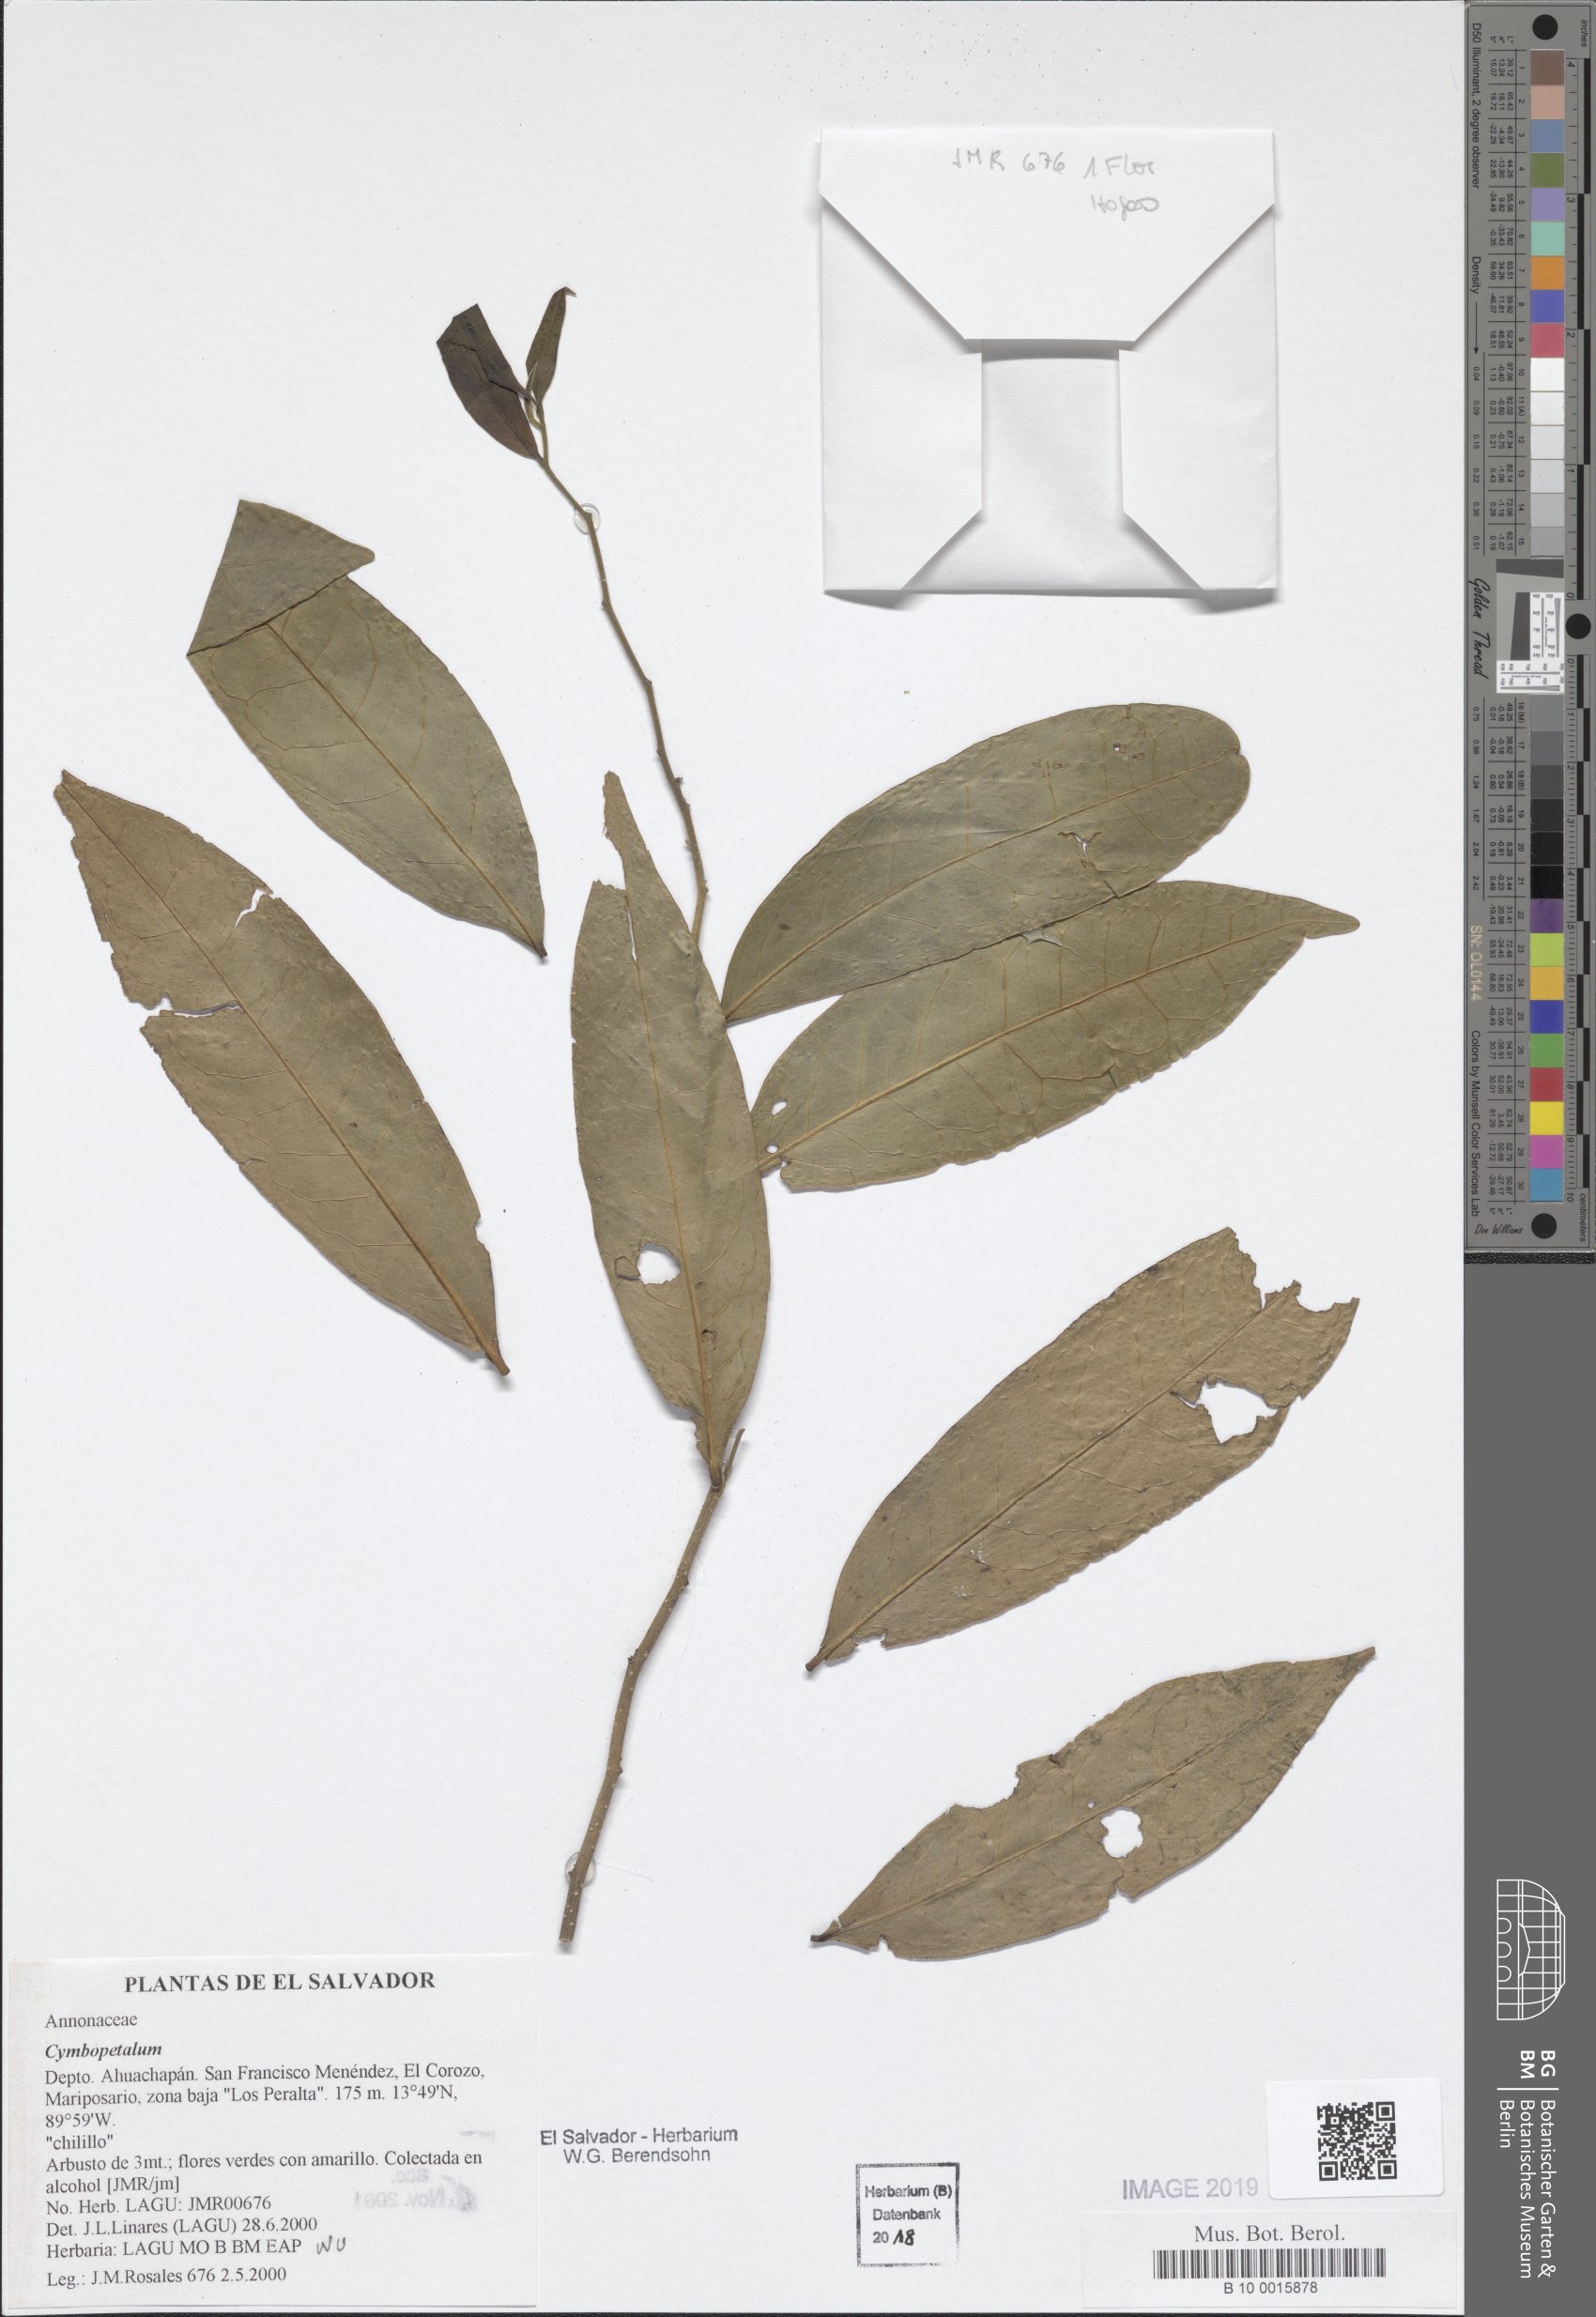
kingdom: Plantae
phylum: Tracheophyta
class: Magnoliopsida
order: Magnoliales
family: Annonaceae
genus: Cymbopetalum
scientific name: Cymbopetalum
